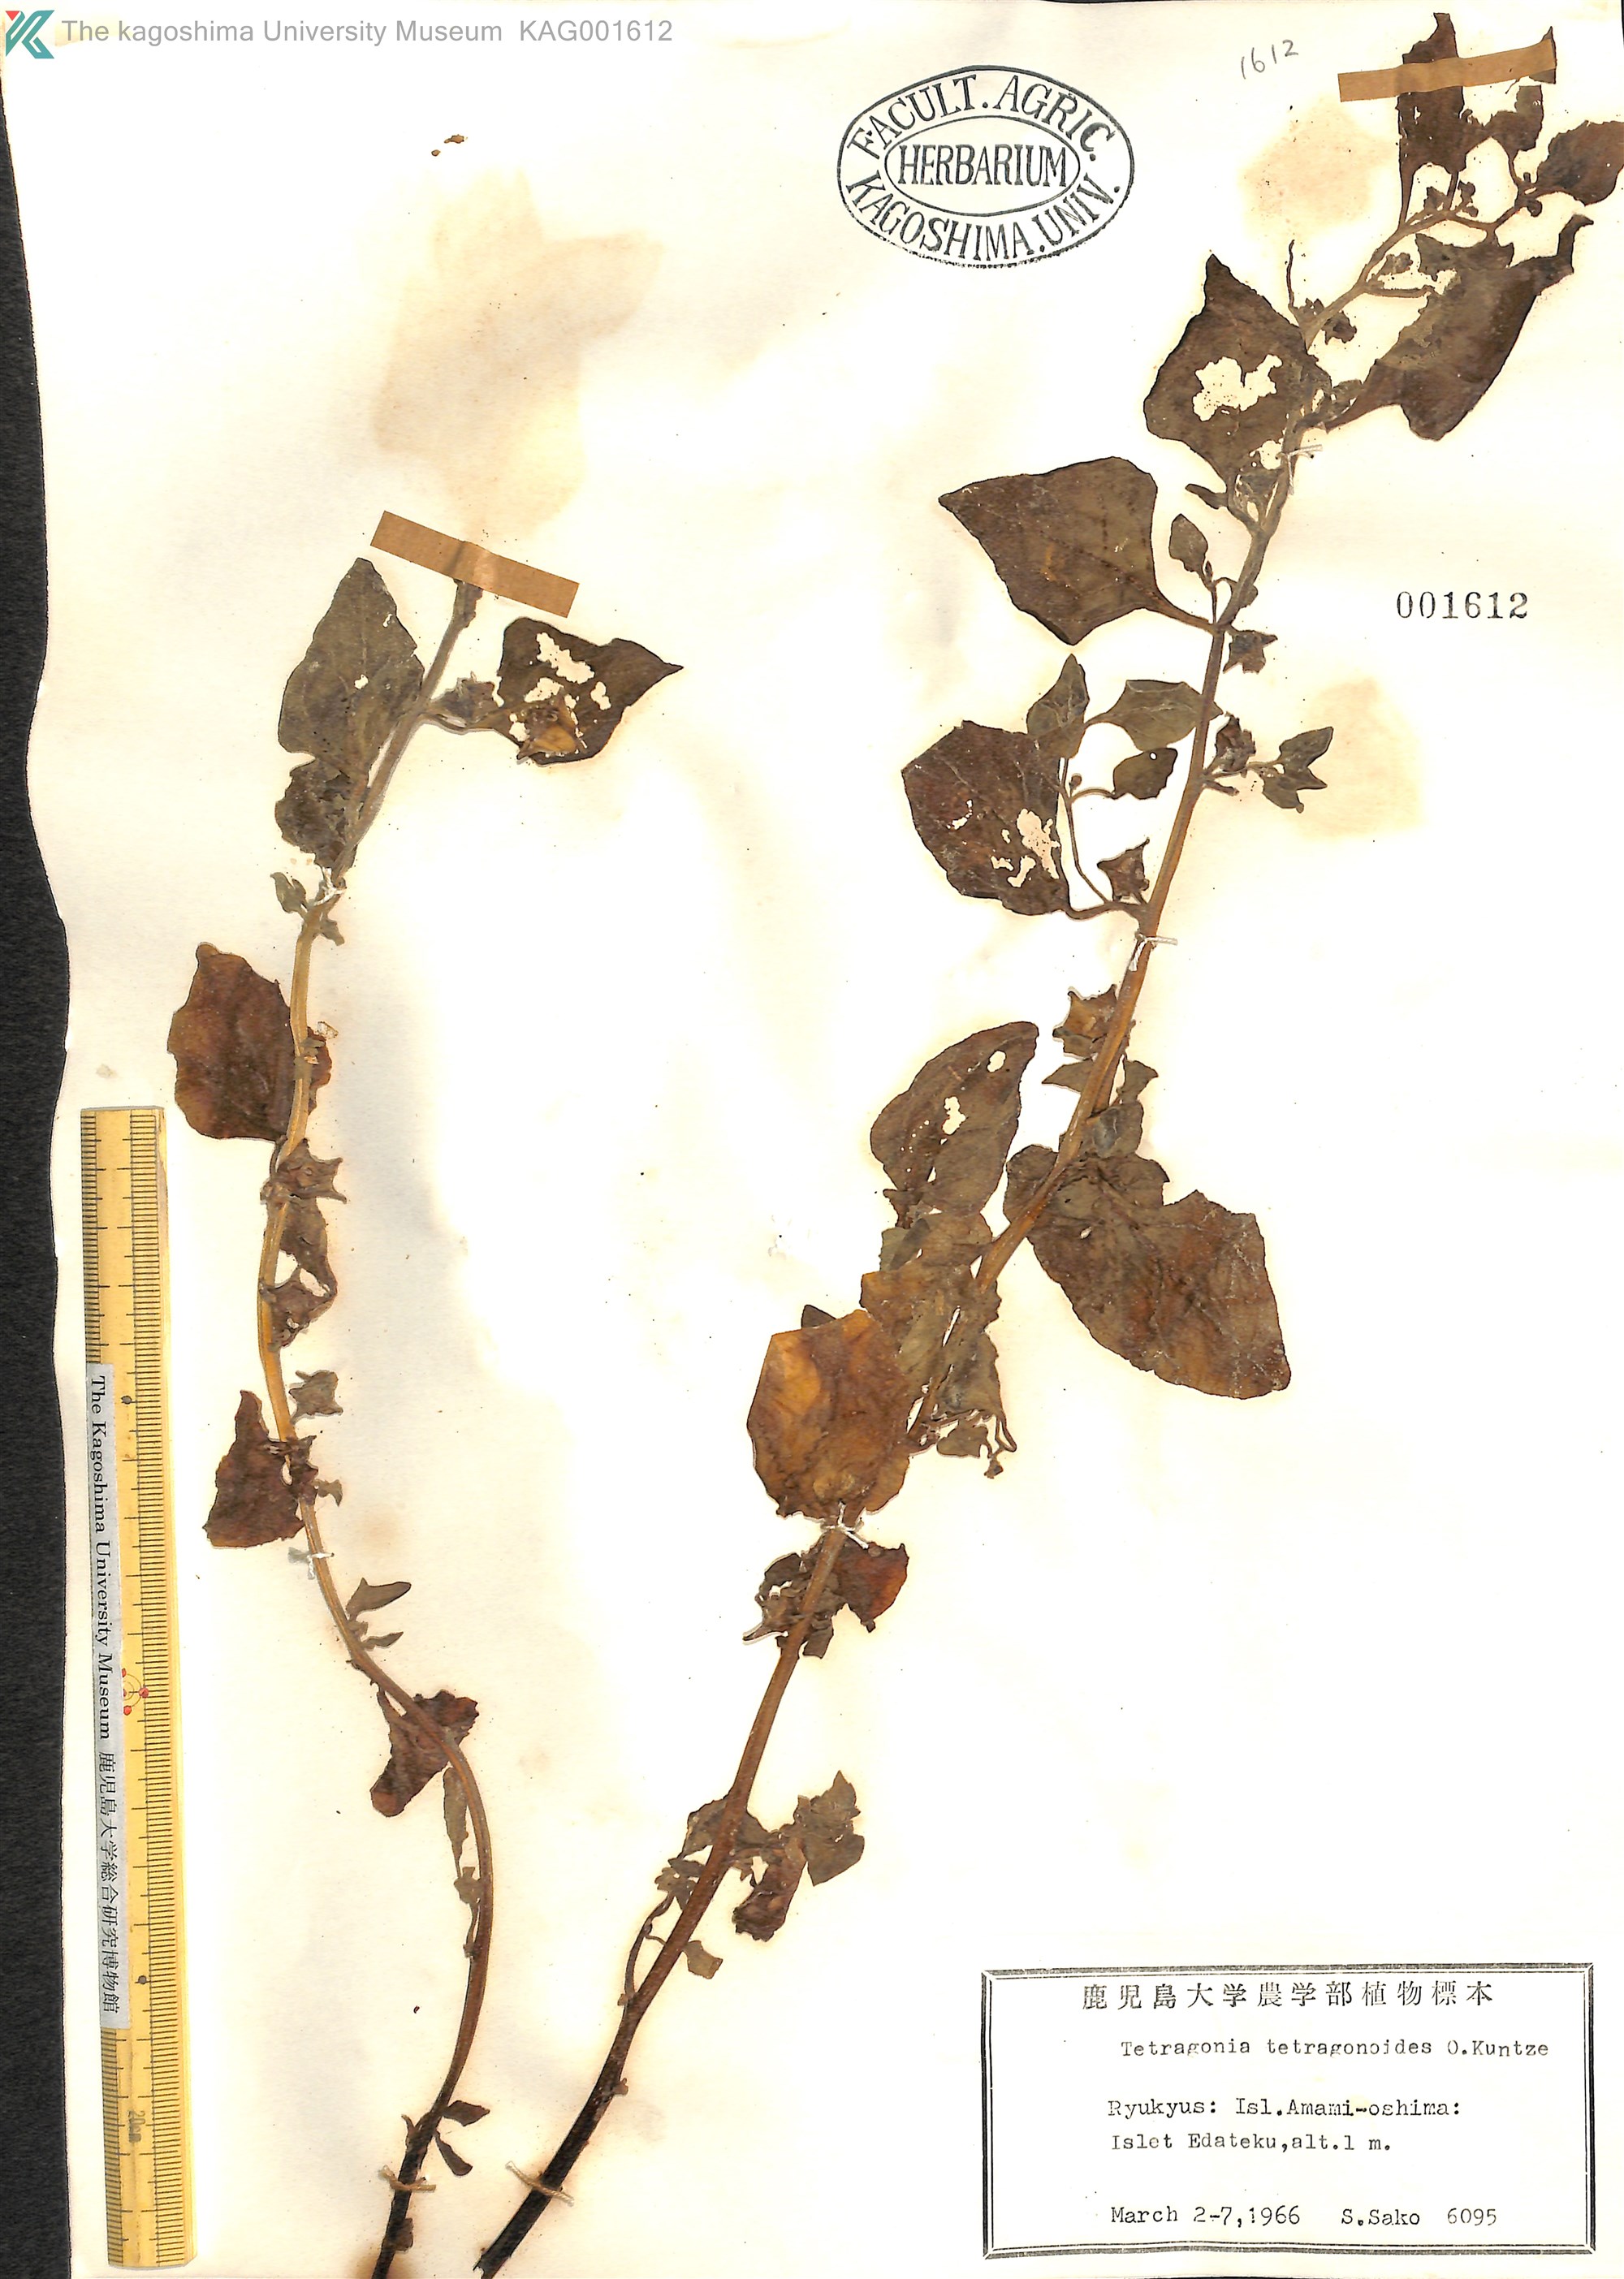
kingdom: Plantae
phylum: Tracheophyta
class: Magnoliopsida
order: Caryophyllales
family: Aizoaceae
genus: Tetragonia
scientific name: Tetragonia tetragonoides
